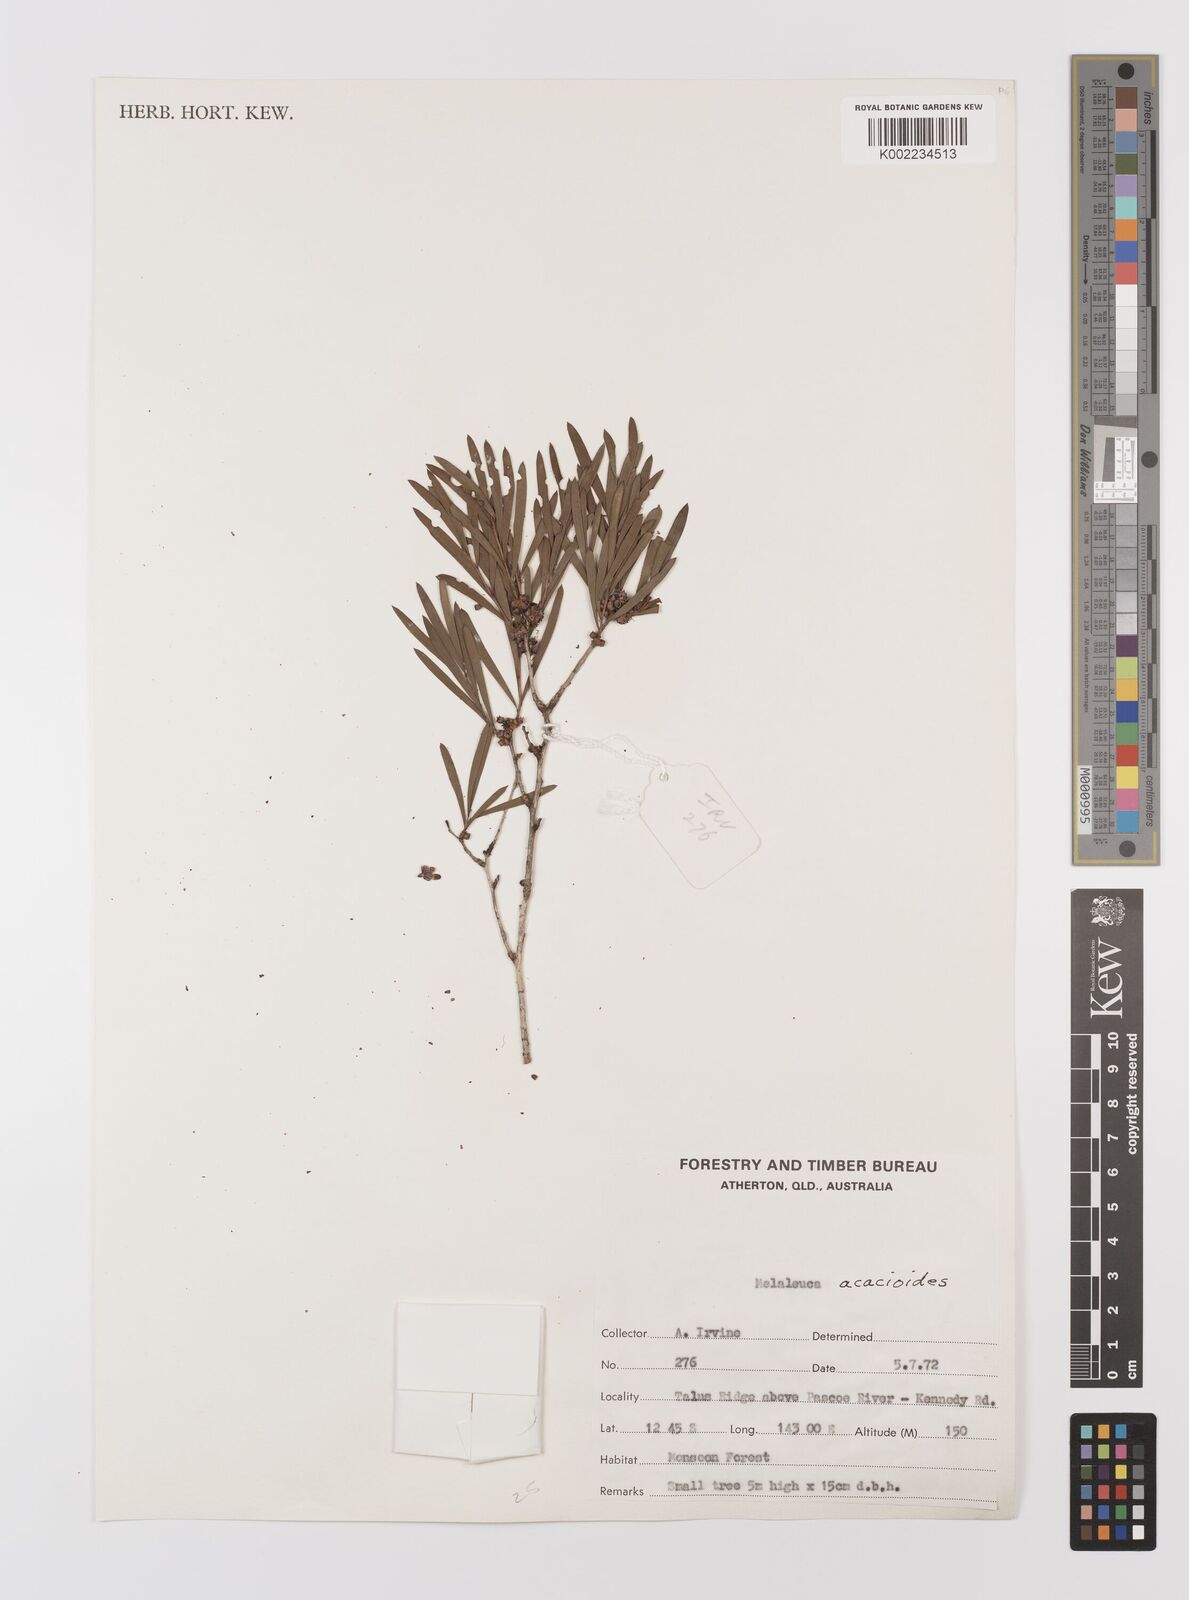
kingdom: Plantae
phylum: Tracheophyta
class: Magnoliopsida
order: Myrtales
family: Myrtaceae
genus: Melaleuca
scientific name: Melaleuca citrolens
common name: Lemon-scented paperbark
